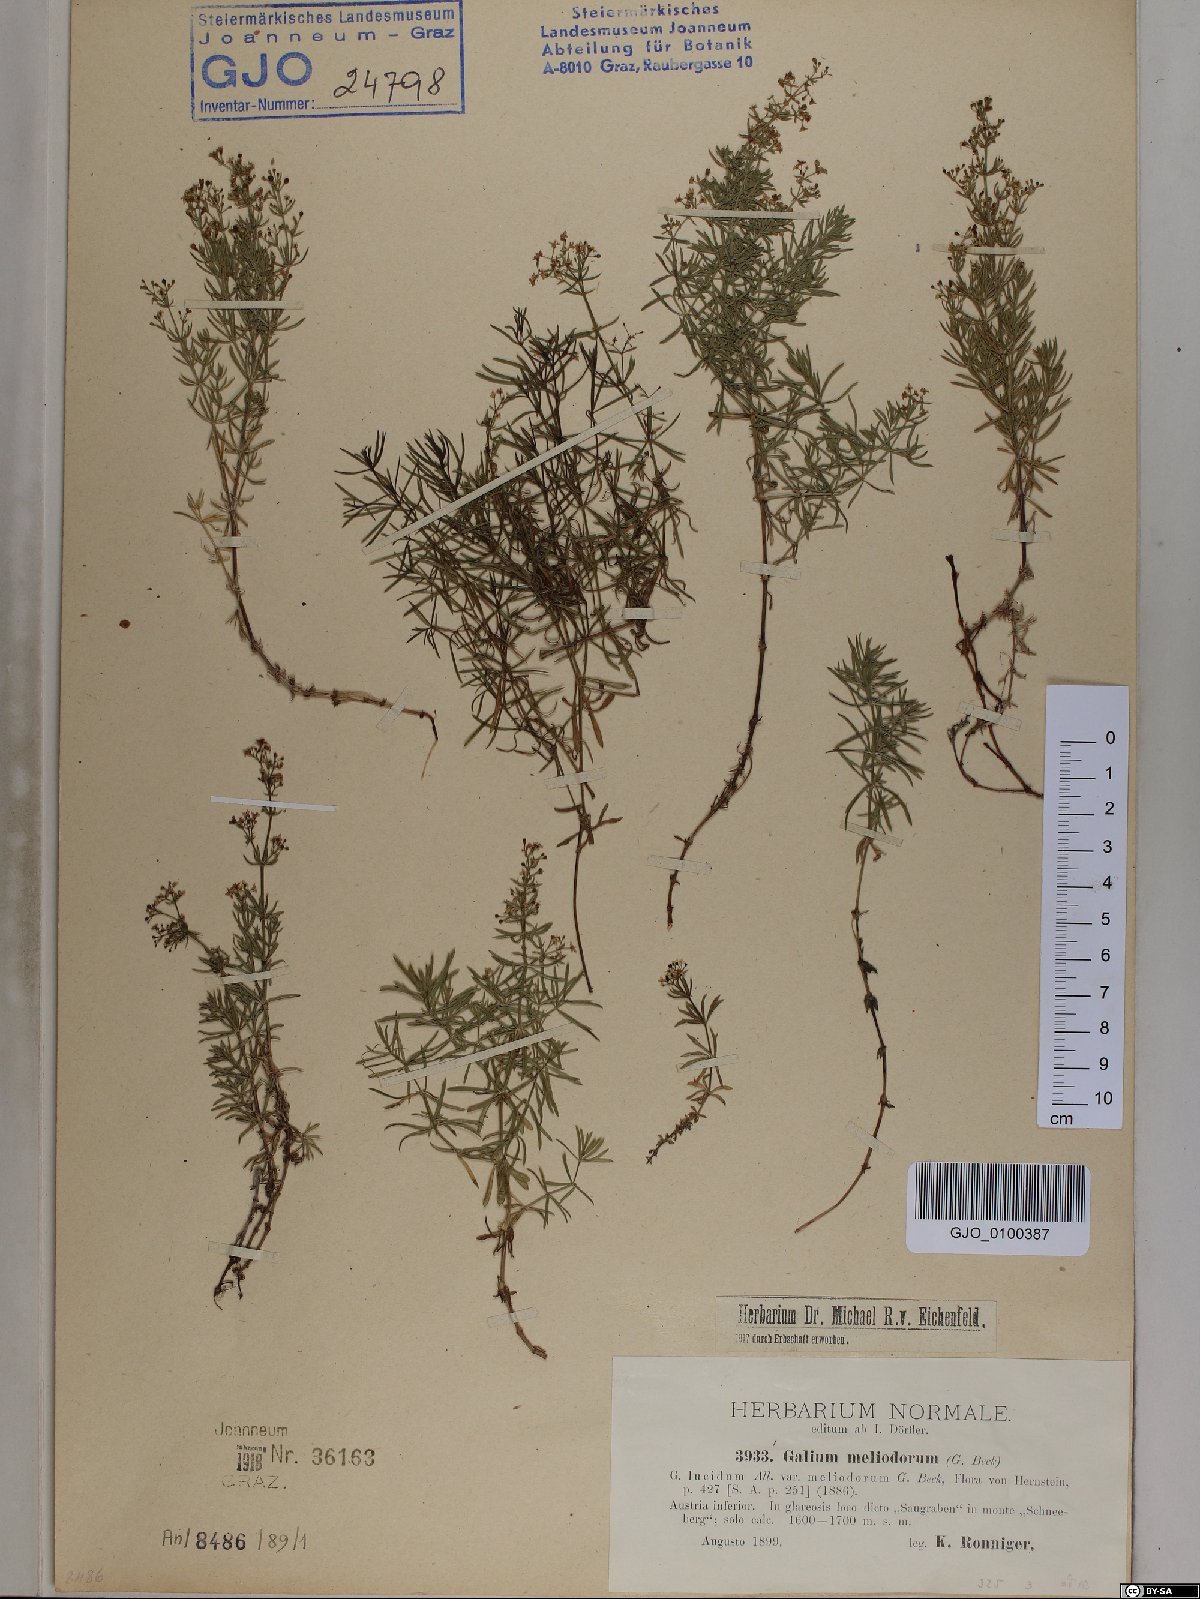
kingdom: Plantae
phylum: Tracheophyta
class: Magnoliopsida
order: Gentianales
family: Rubiaceae
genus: Galium
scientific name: Galium meliodorum
